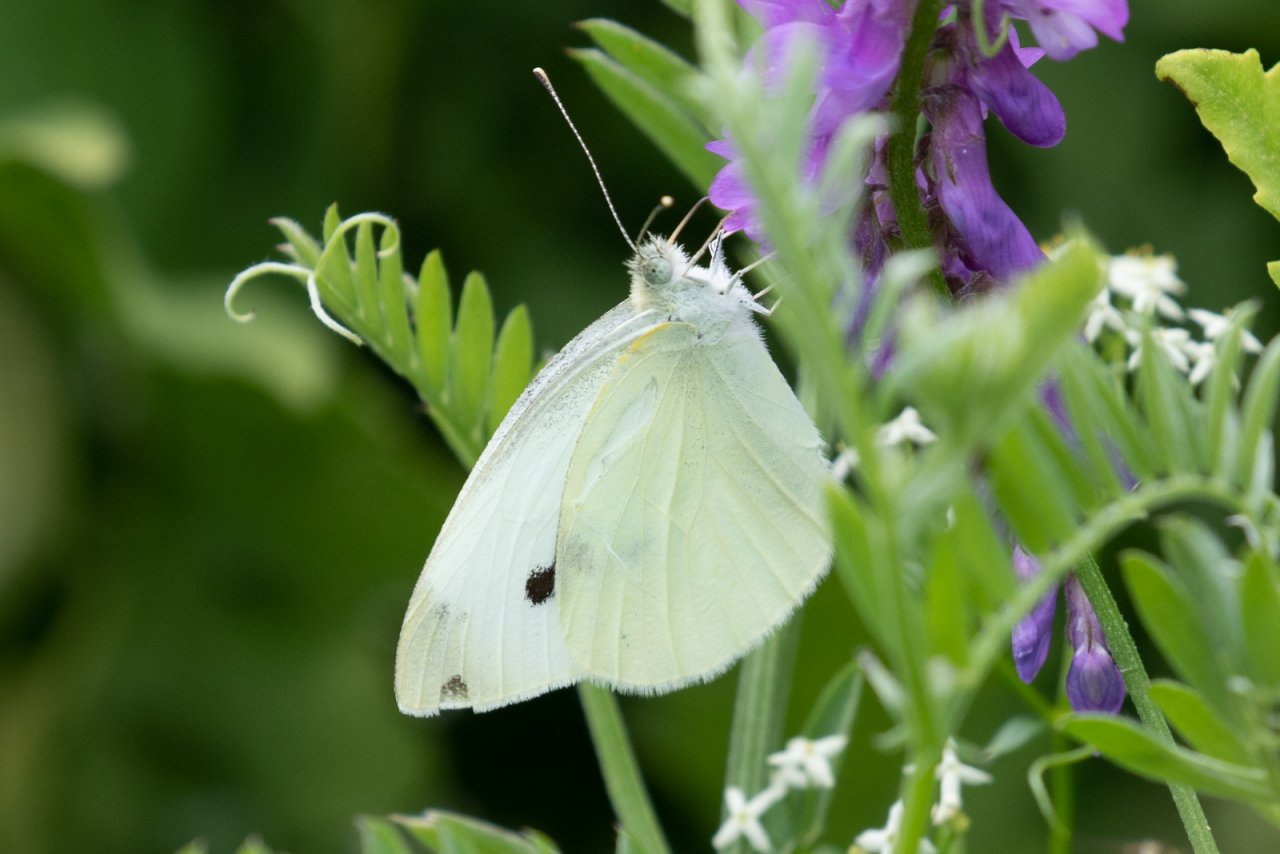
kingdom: Animalia
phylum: Arthropoda
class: Insecta
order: Lepidoptera
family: Pieridae
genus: Pieris
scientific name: Pieris rapae
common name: Cabbage White
